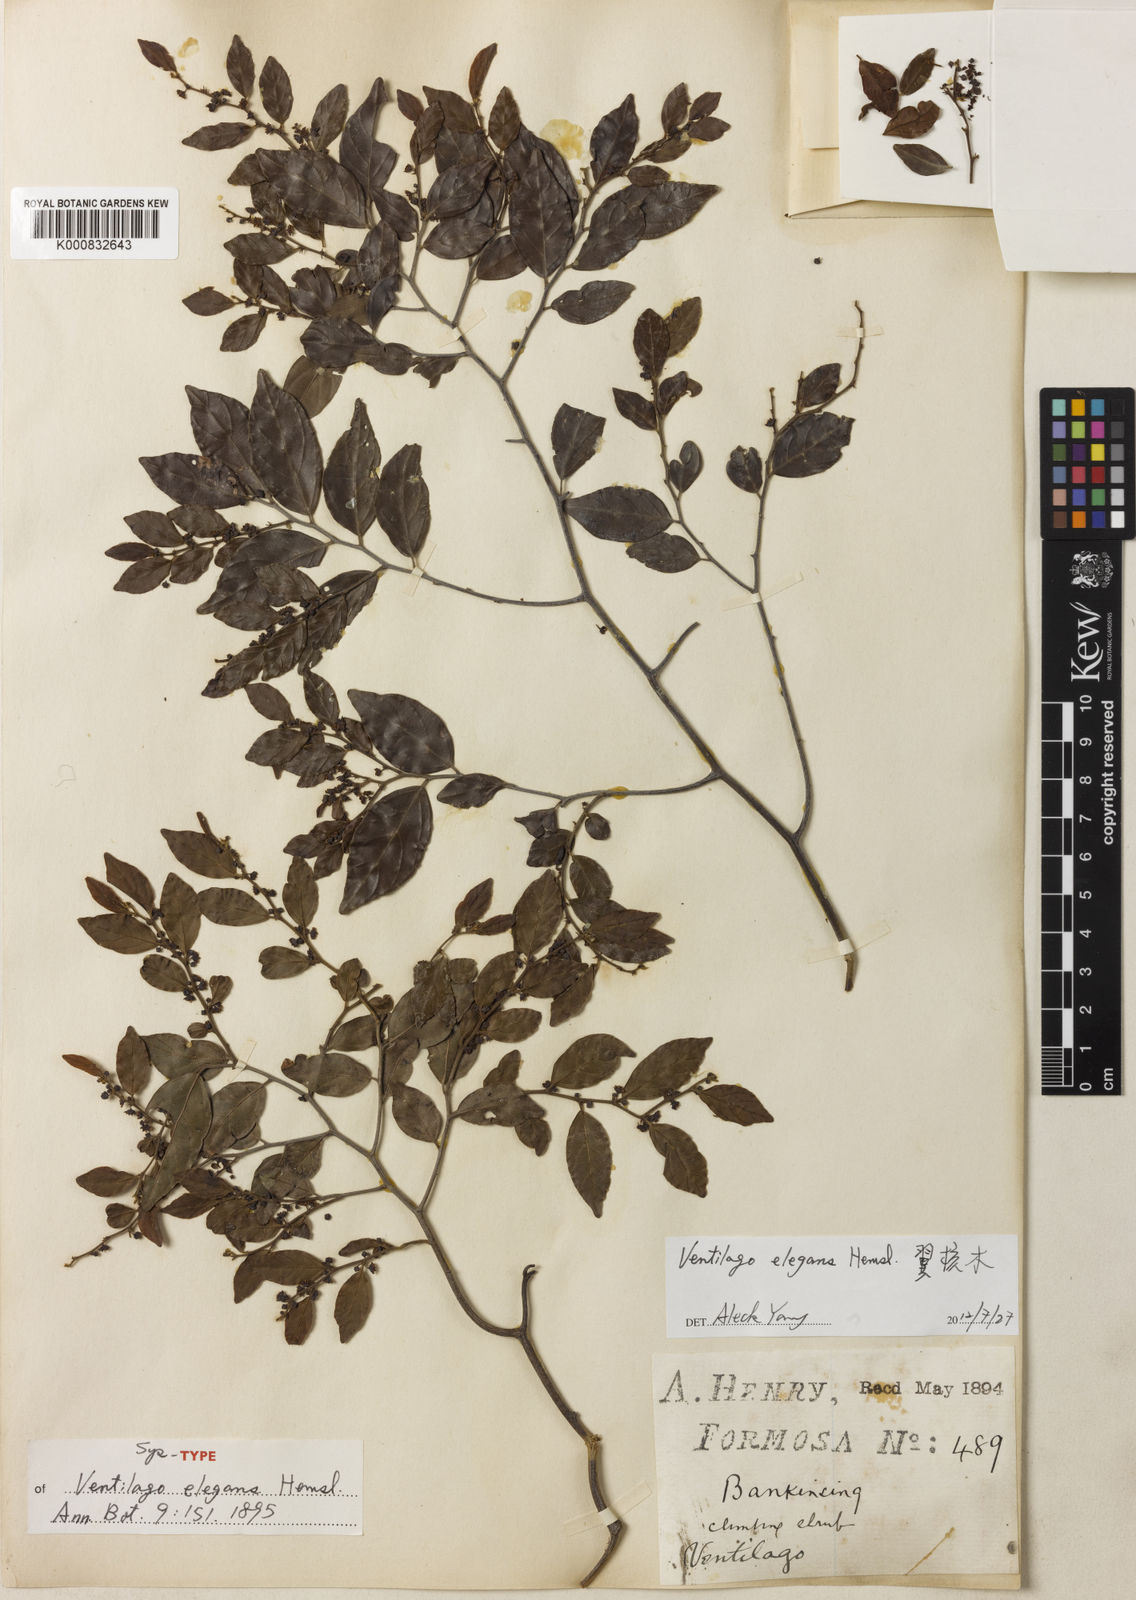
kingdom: Plantae
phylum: Tracheophyta
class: Magnoliopsida
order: Rosales
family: Rhamnaceae
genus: Ventilago
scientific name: Ventilago elegans
